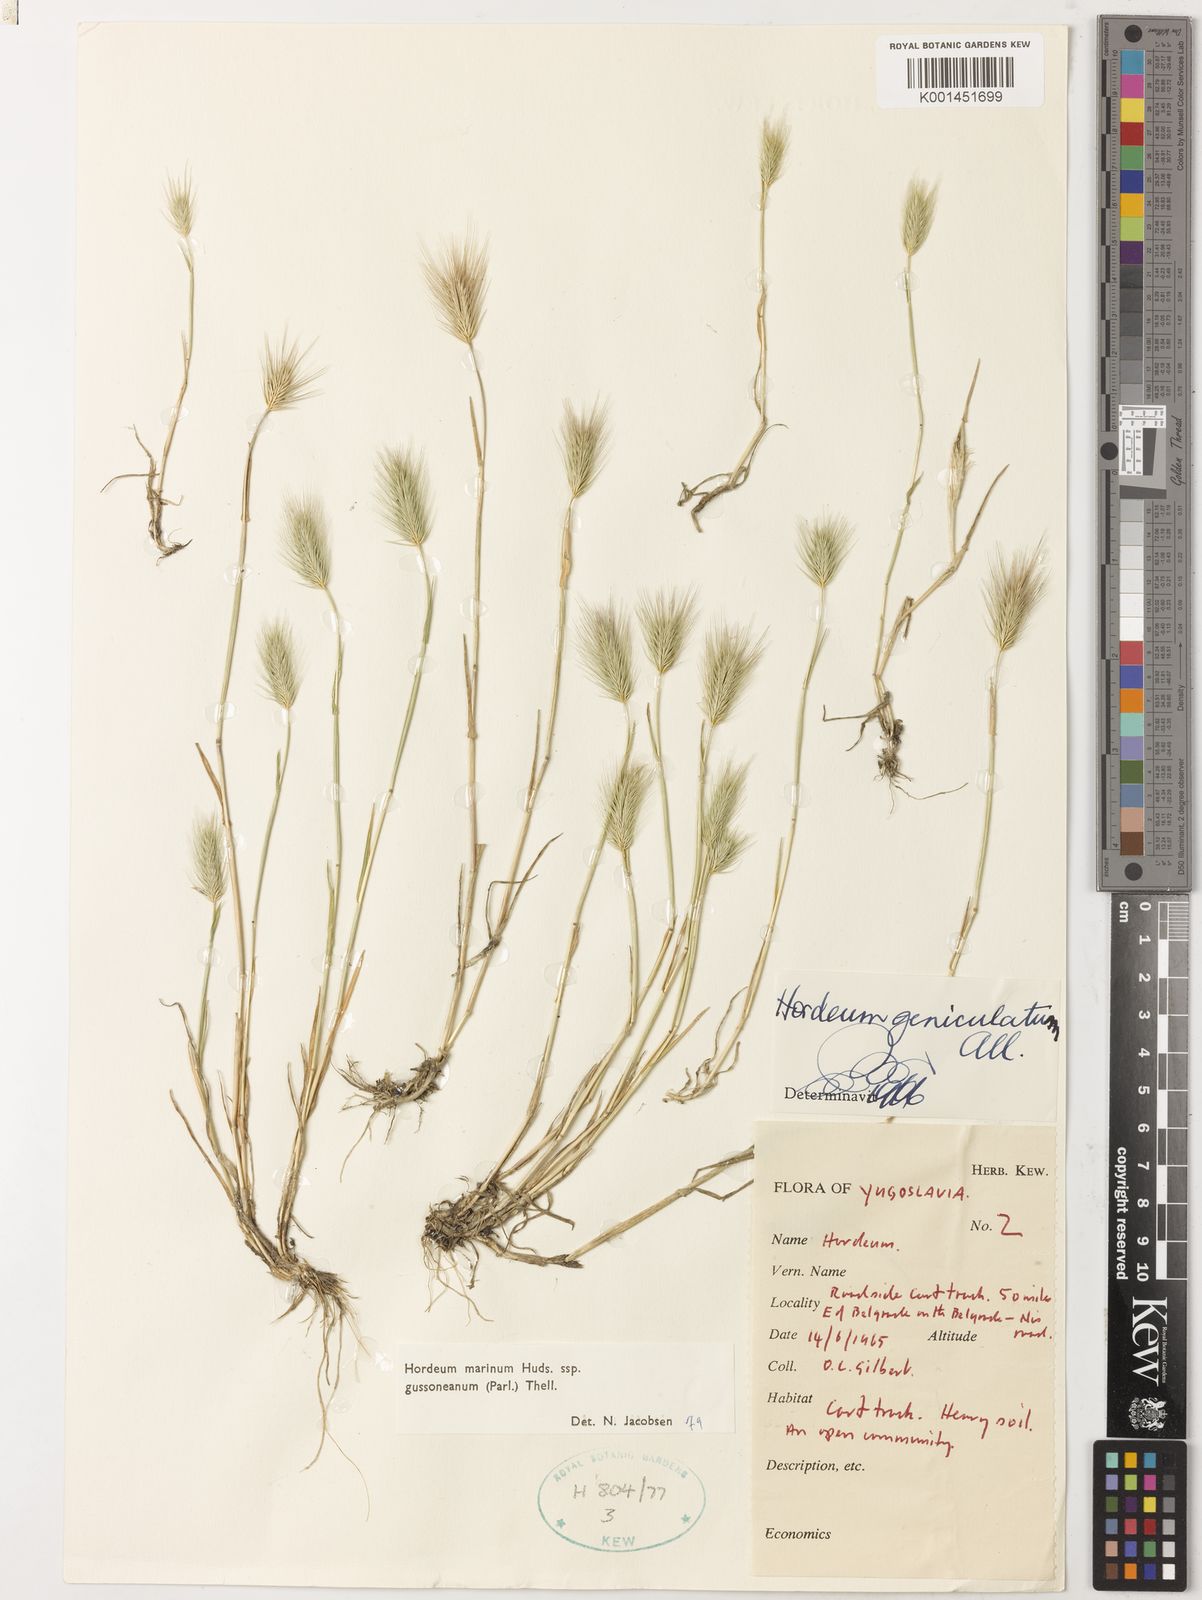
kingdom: Plantae
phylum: Tracheophyta
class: Liliopsida
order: Poales
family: Poaceae
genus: Hordeum
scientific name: Hordeum marinum
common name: Sea barley
